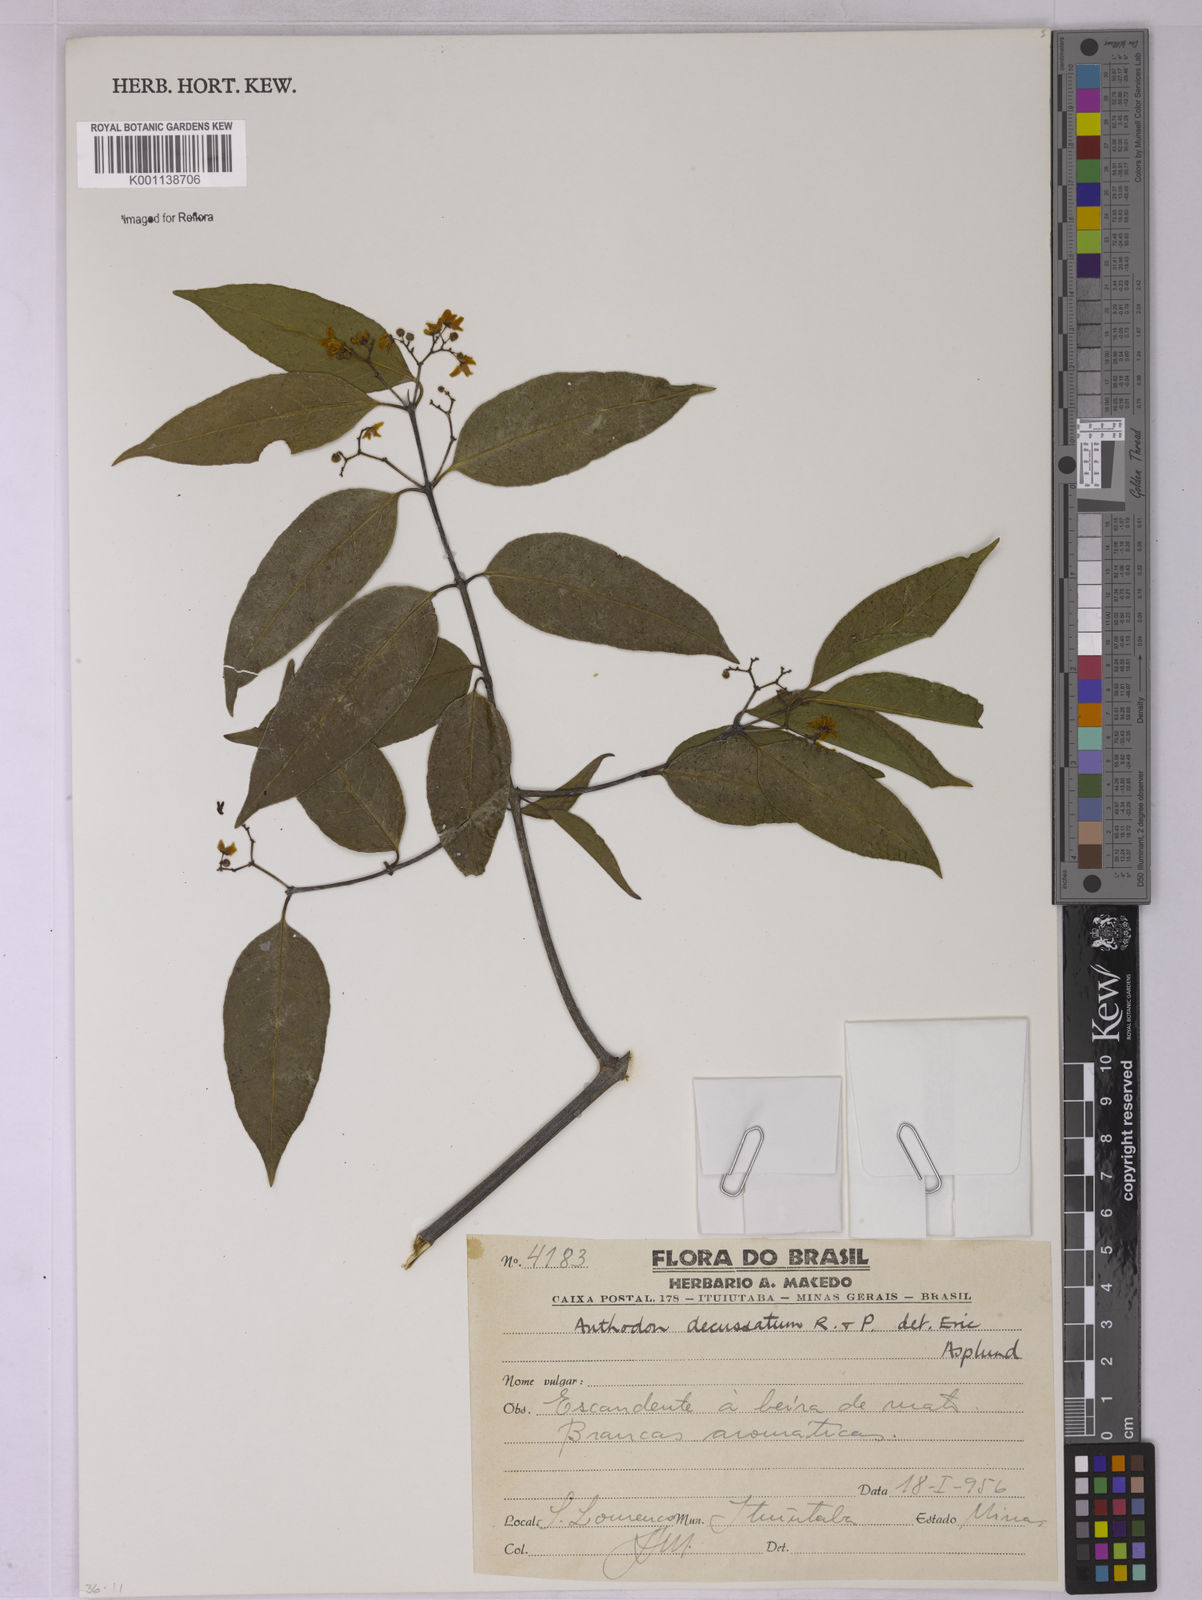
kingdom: Plantae
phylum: Tracheophyta
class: Magnoliopsida
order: Celastrales
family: Celastraceae
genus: Anthodon
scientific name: Anthodon decussatum
